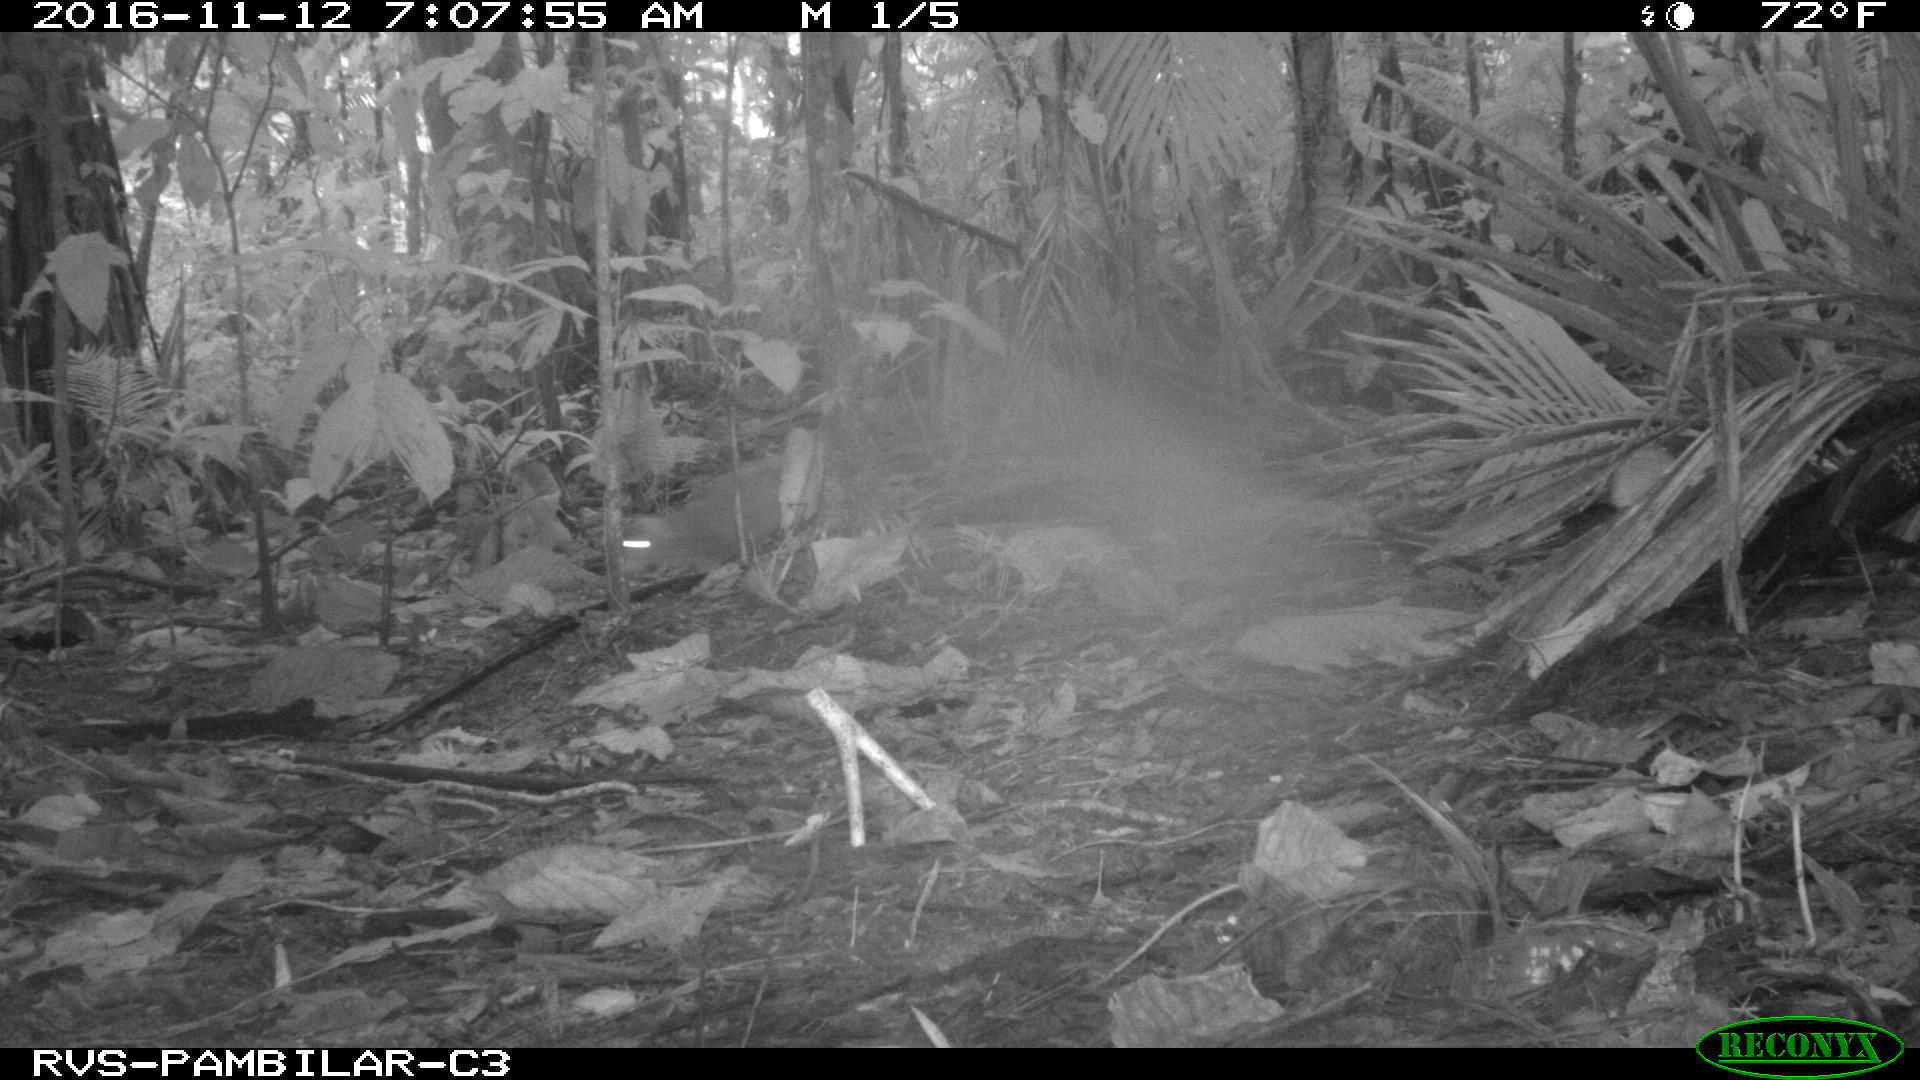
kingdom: Animalia
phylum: Chordata
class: Mammalia
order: Rodentia
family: Dasyproctidae
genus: Dasyprocta
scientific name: Dasyprocta punctata
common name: Central american agouti
